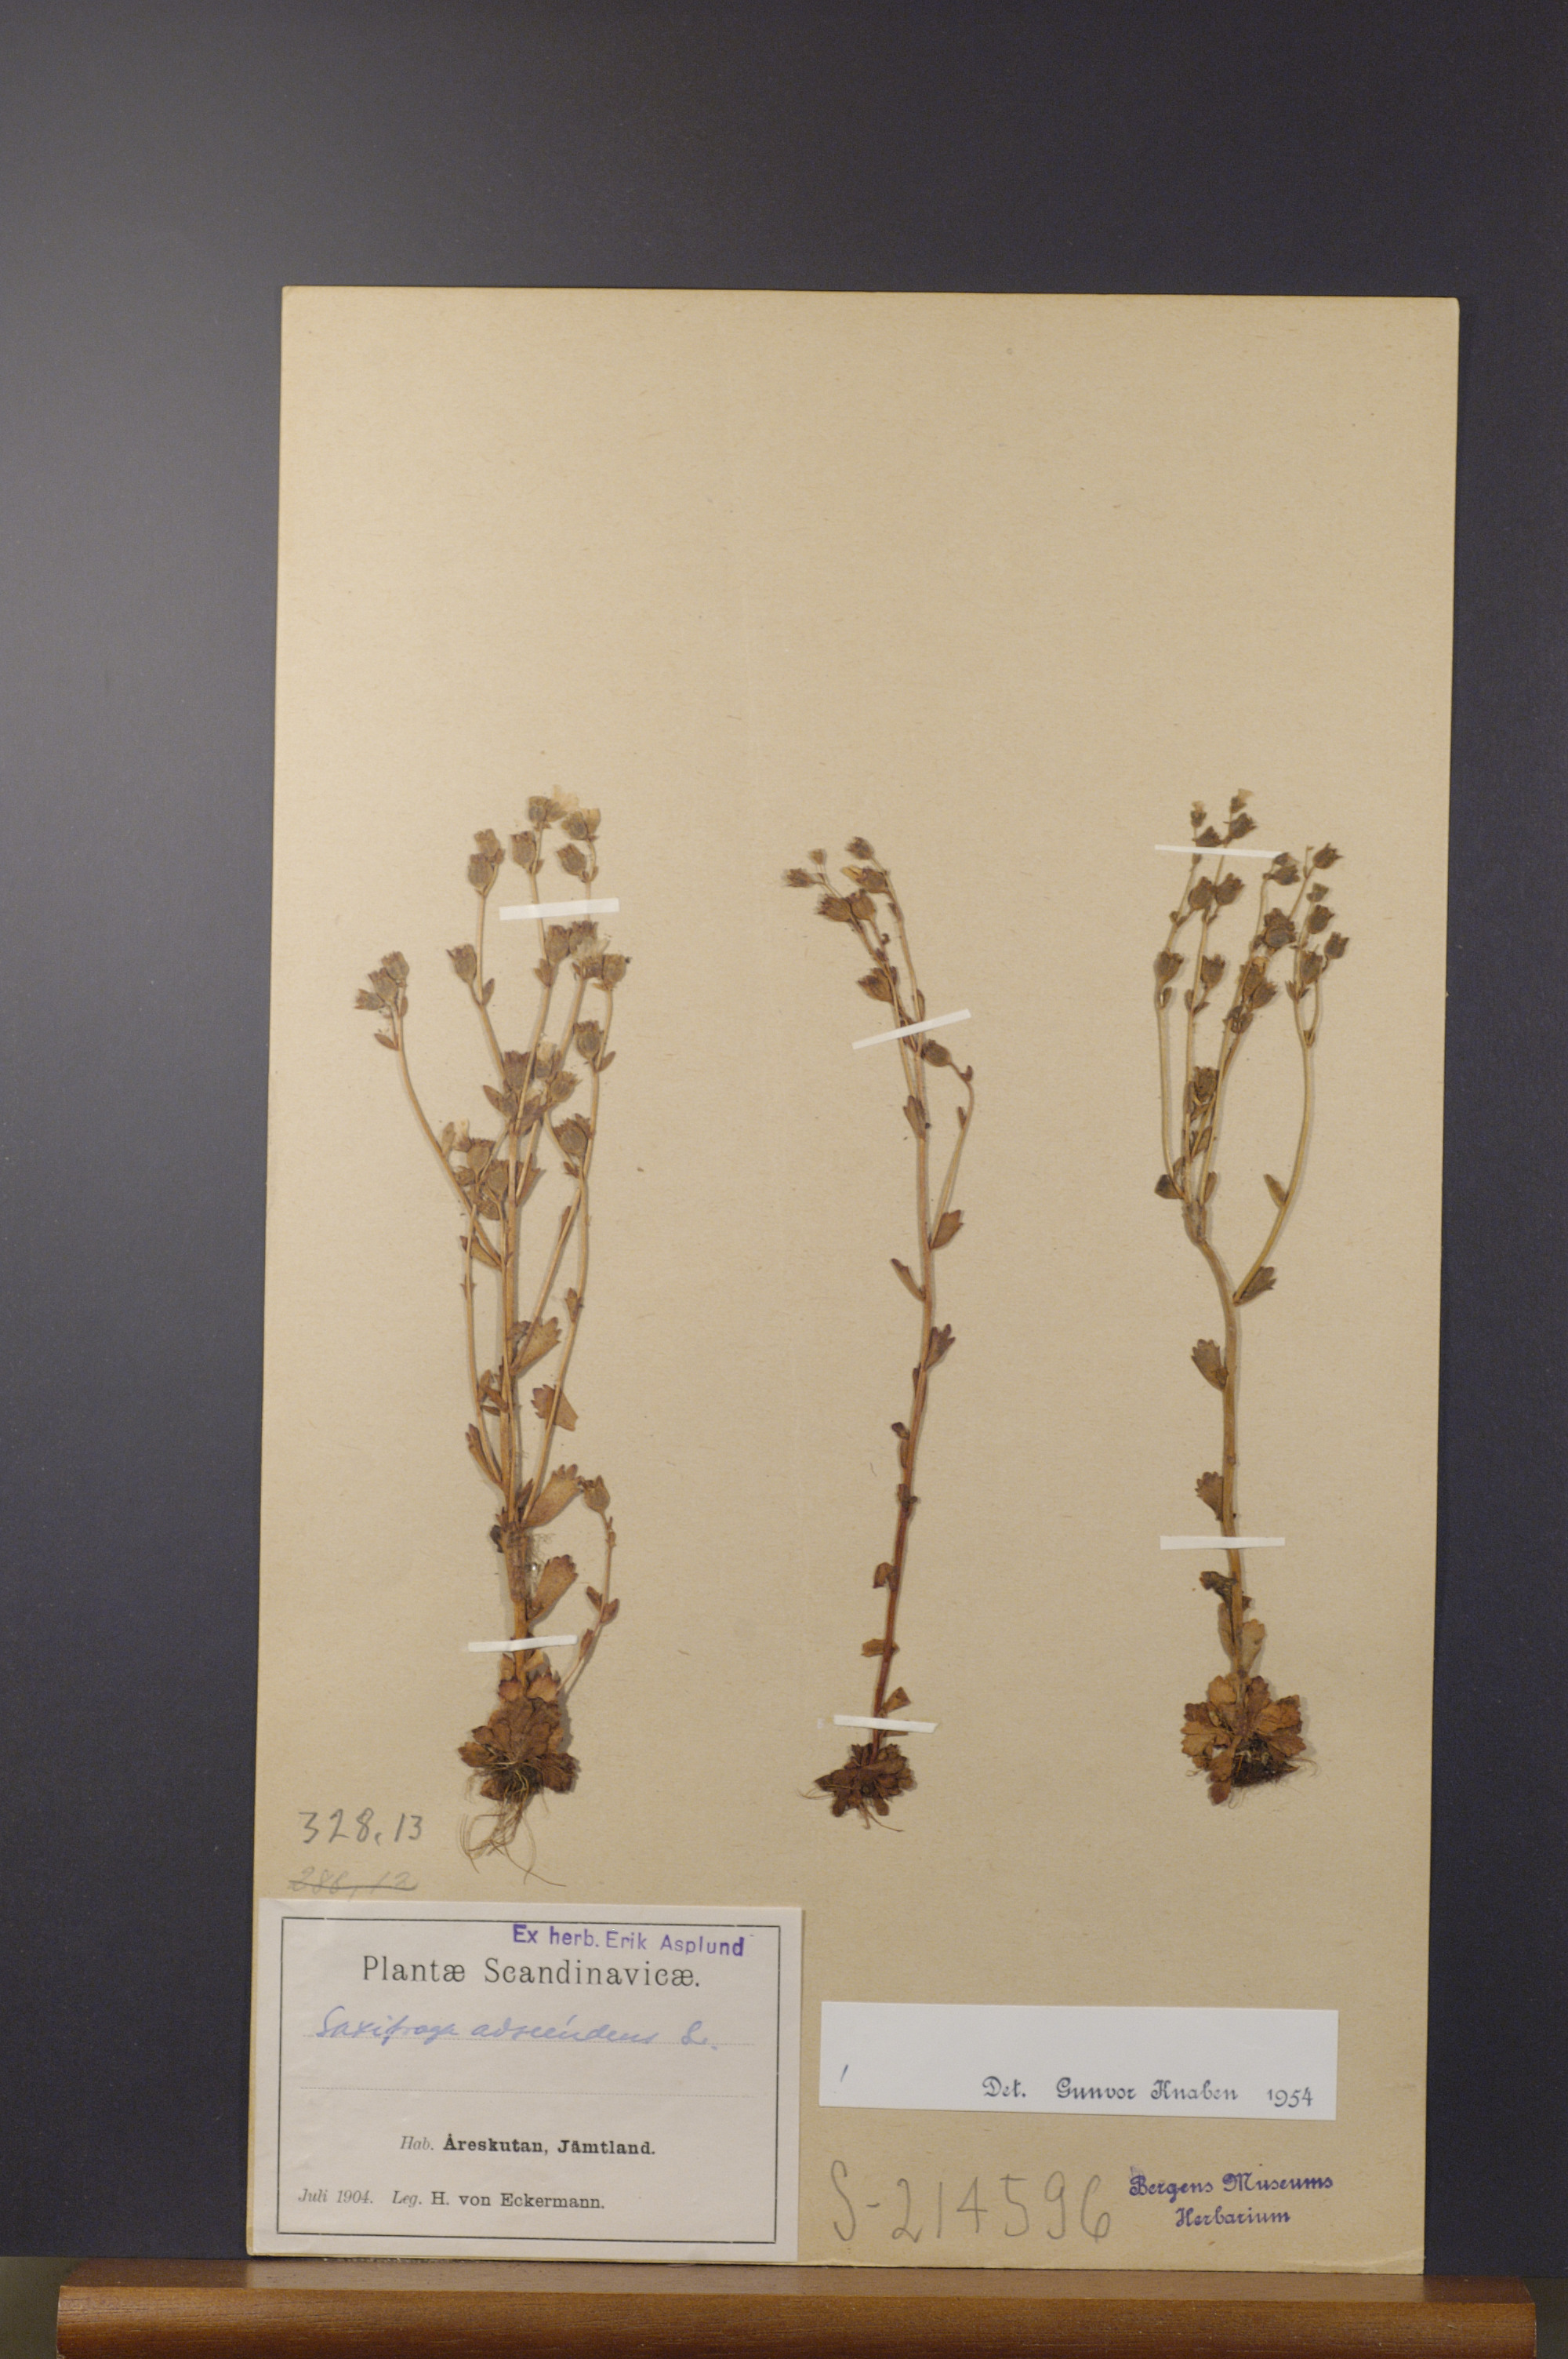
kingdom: Plantae
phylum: Tracheophyta
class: Magnoliopsida
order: Saxifragales
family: Saxifragaceae
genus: Saxifraga
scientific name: Saxifraga adscendens
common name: Ascending saxifrage
